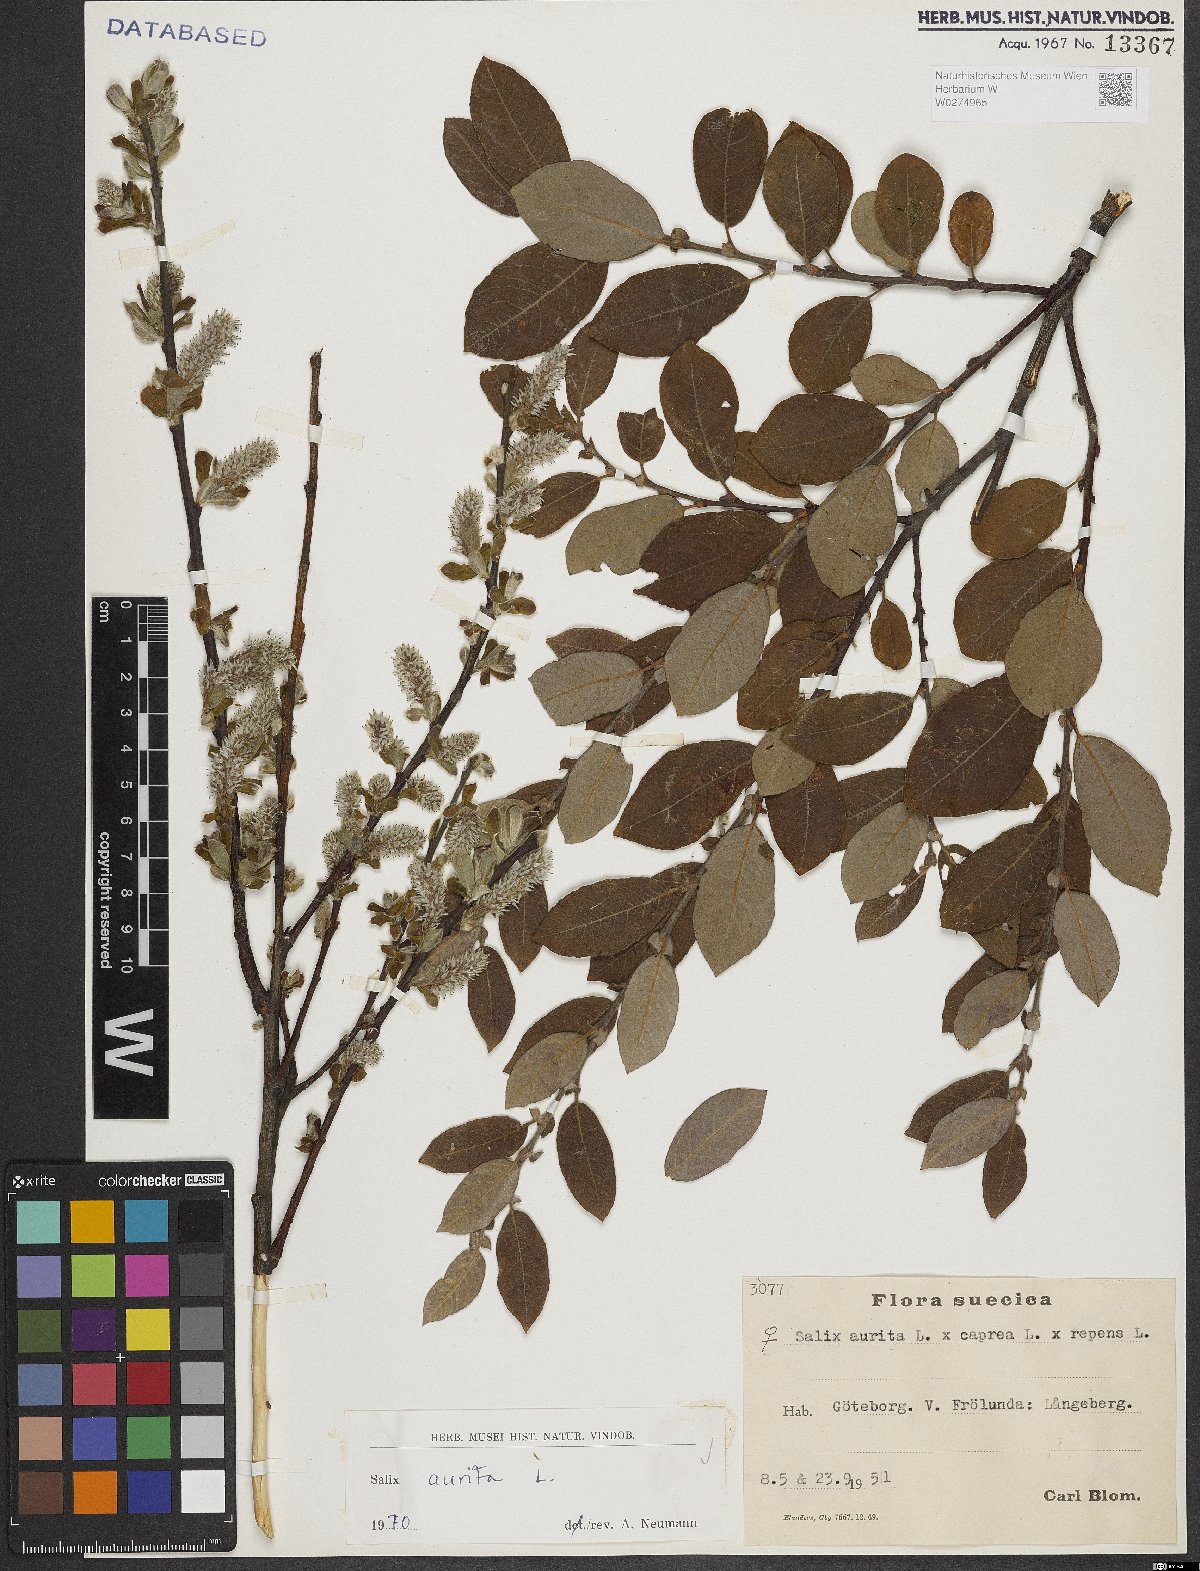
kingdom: Plantae
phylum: Tracheophyta
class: Magnoliopsida
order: Malpighiales
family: Salicaceae
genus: Salix
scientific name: Salix aurita
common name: Eared willow
